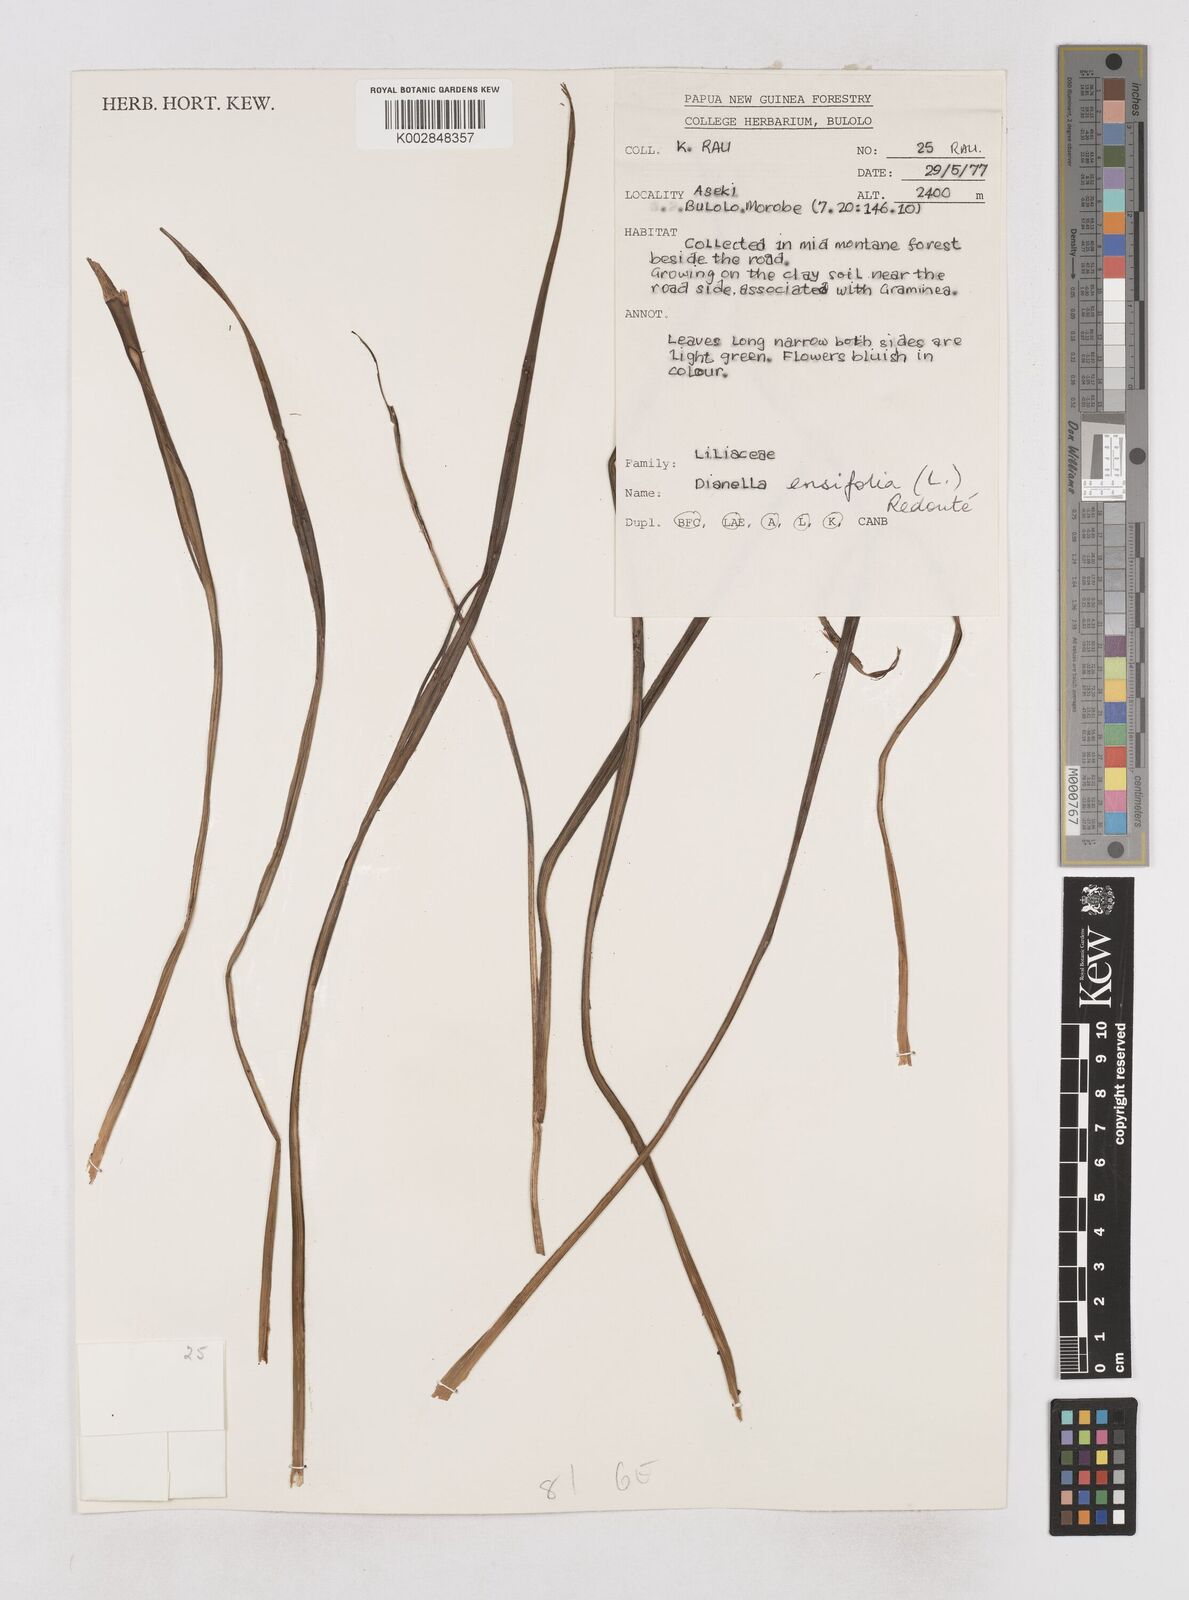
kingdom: Plantae
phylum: Tracheophyta
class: Liliopsida
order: Asparagales
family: Asphodelaceae
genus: Dianella
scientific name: Dianella ensifolia
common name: New zealand lilyplant
